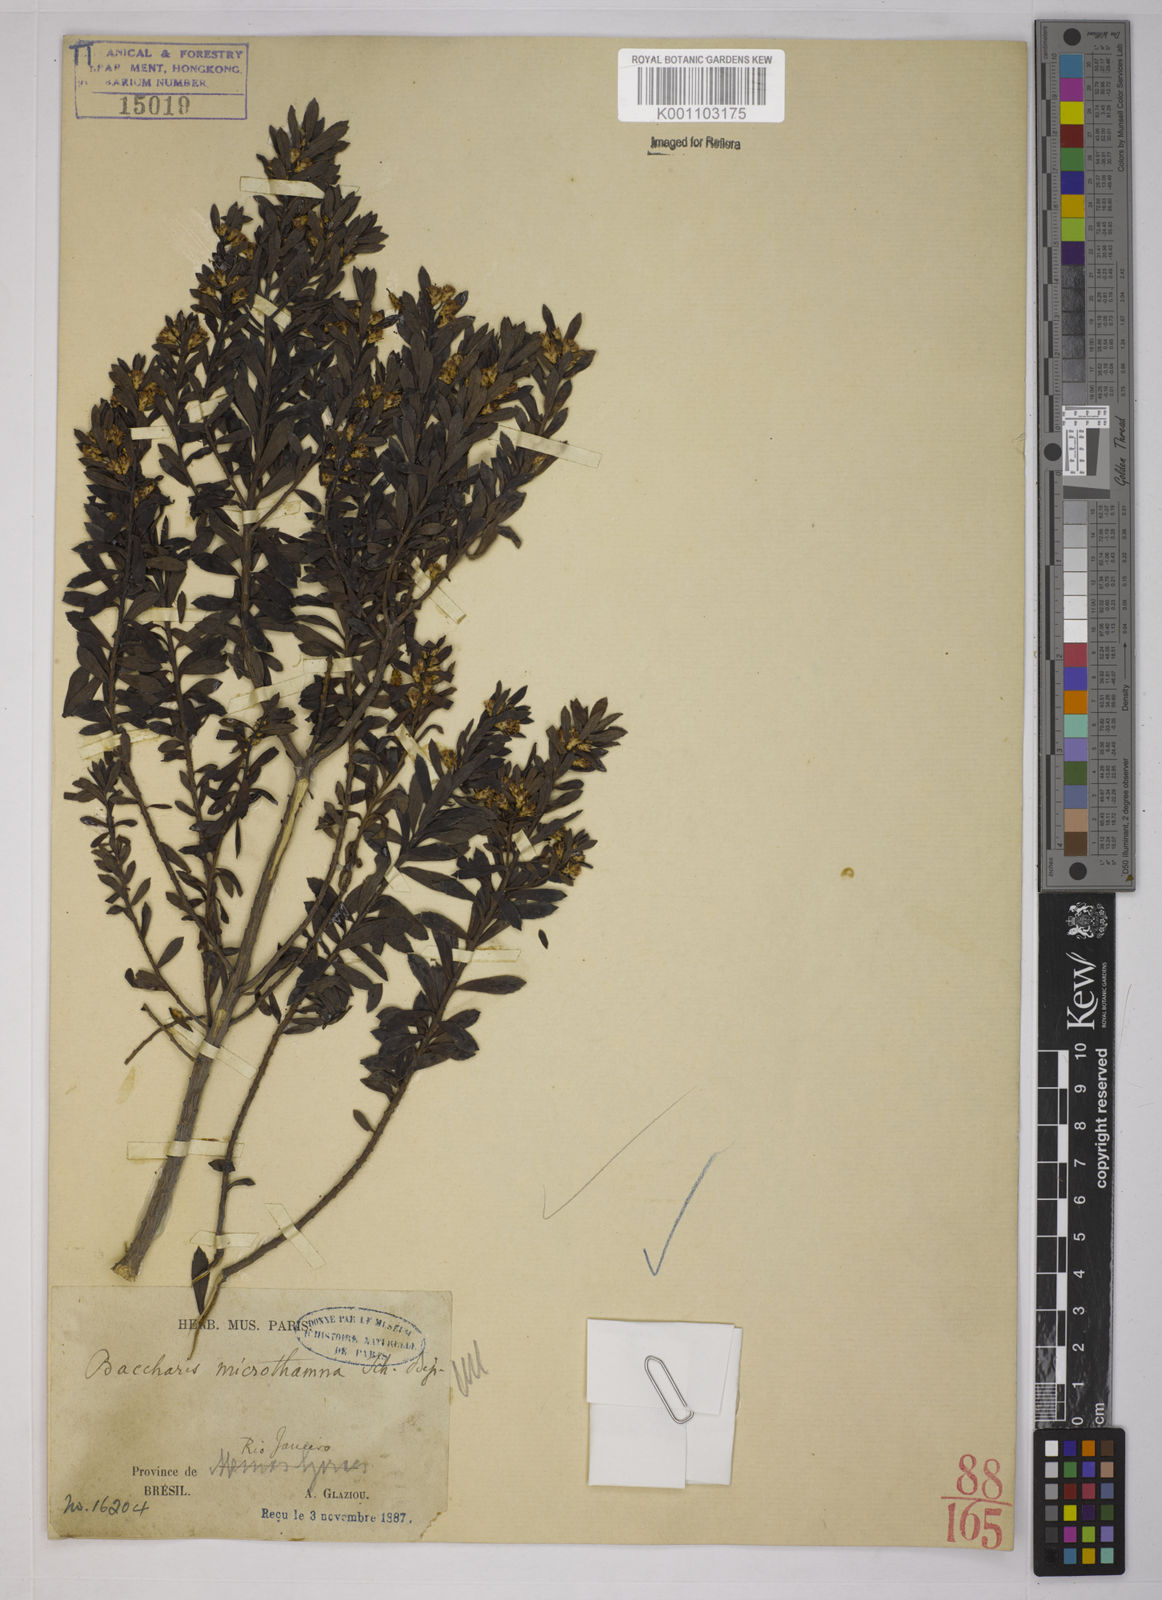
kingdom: Plantae
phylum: Tracheophyta
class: Magnoliopsida
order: Asterales
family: Asteraceae
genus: Baccharis
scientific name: Baccharis selloi
